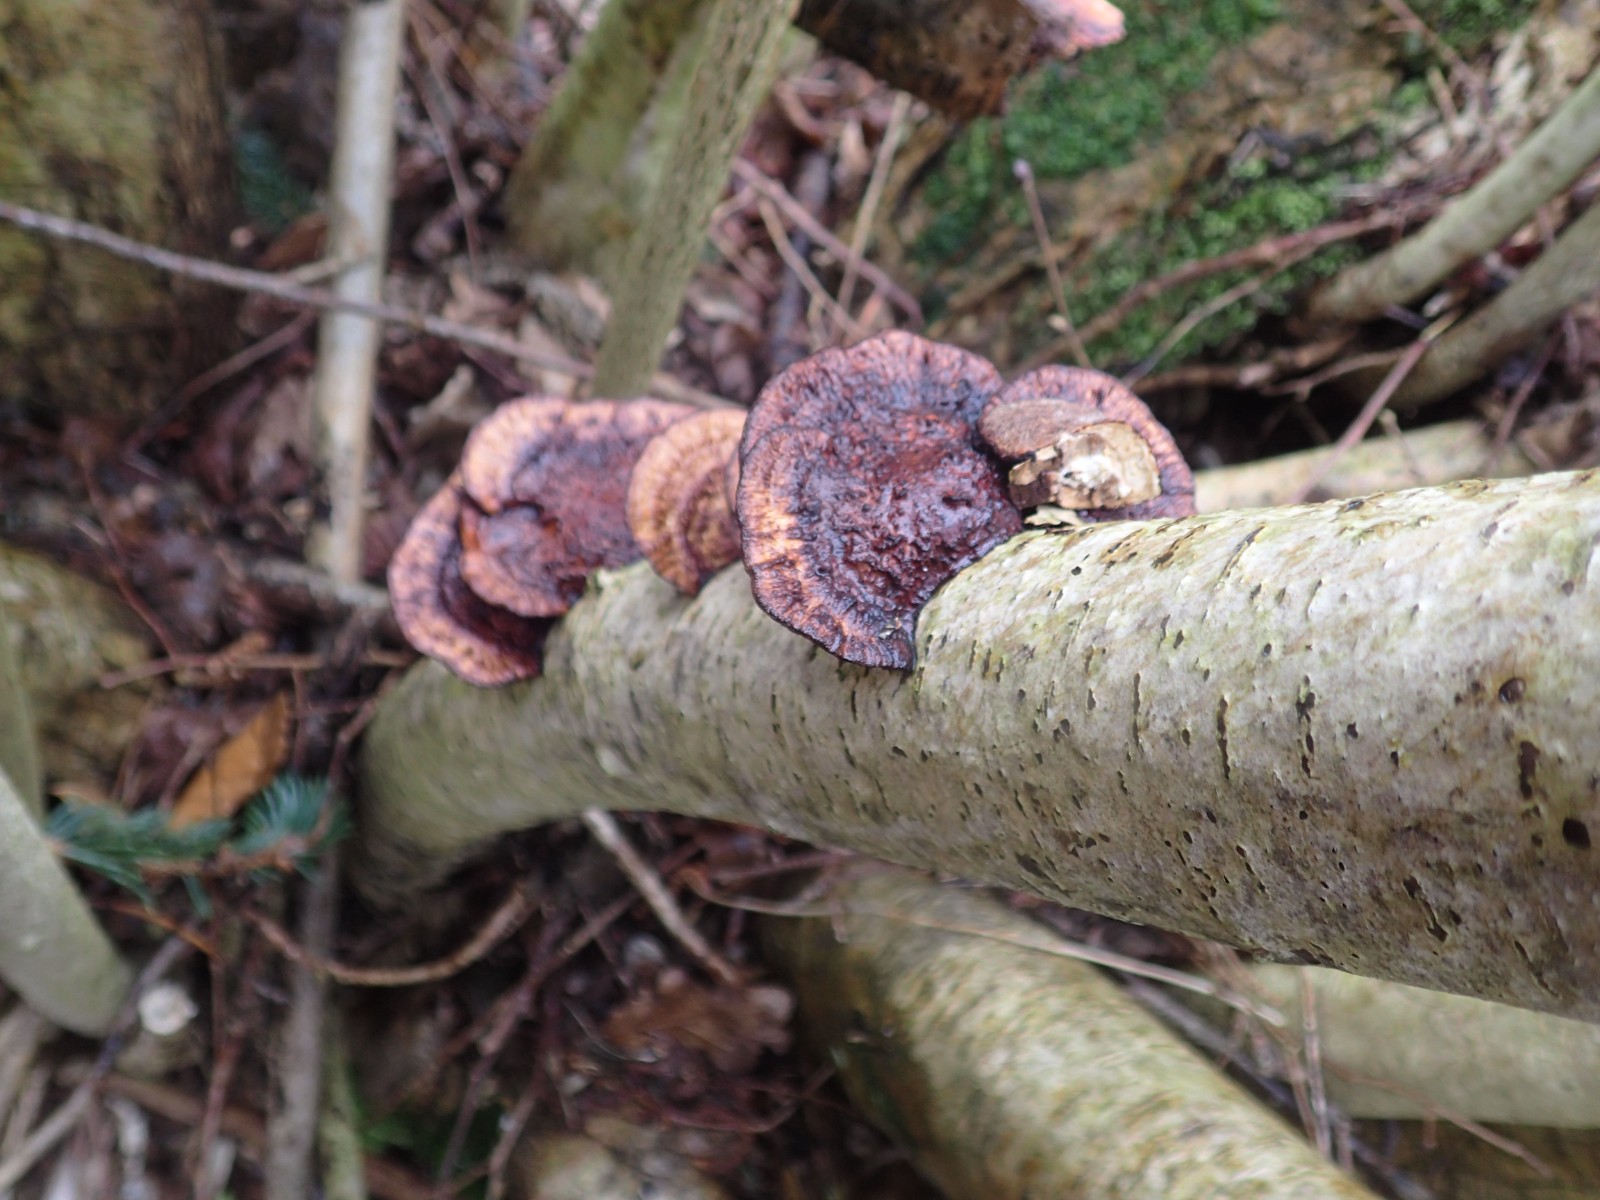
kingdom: Fungi
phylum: Basidiomycota
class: Agaricomycetes
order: Polyporales
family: Polyporaceae
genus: Daedaleopsis
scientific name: Daedaleopsis confragosa
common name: rødmende læderporesvamp
